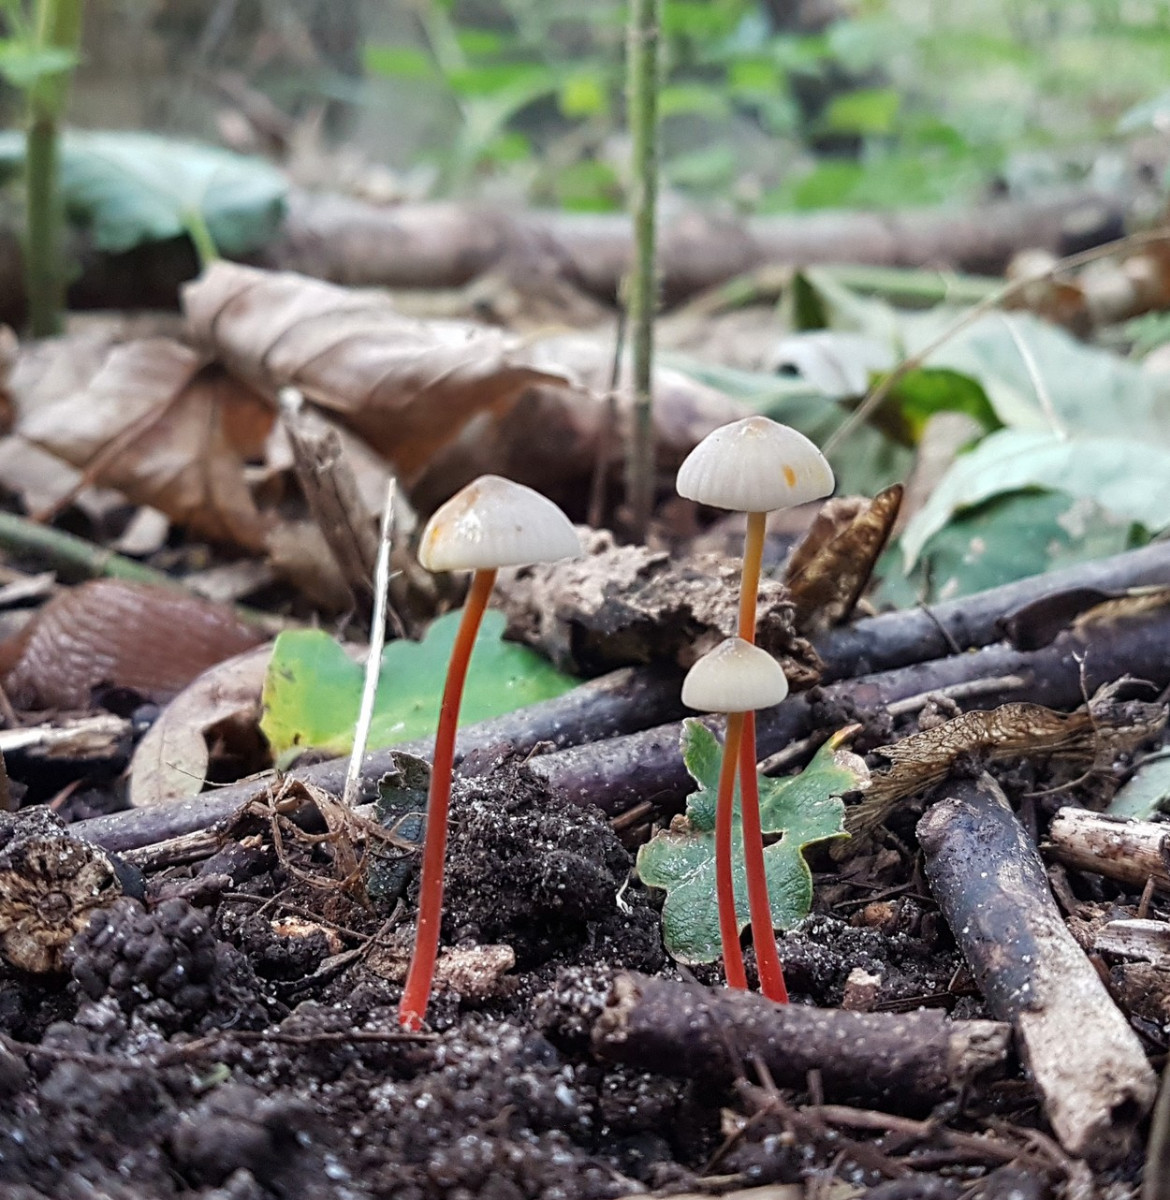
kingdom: Fungi
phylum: Basidiomycota
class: Agaricomycetes
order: Agaricales
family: Mycenaceae
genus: Mycena
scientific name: Mycena crocata
